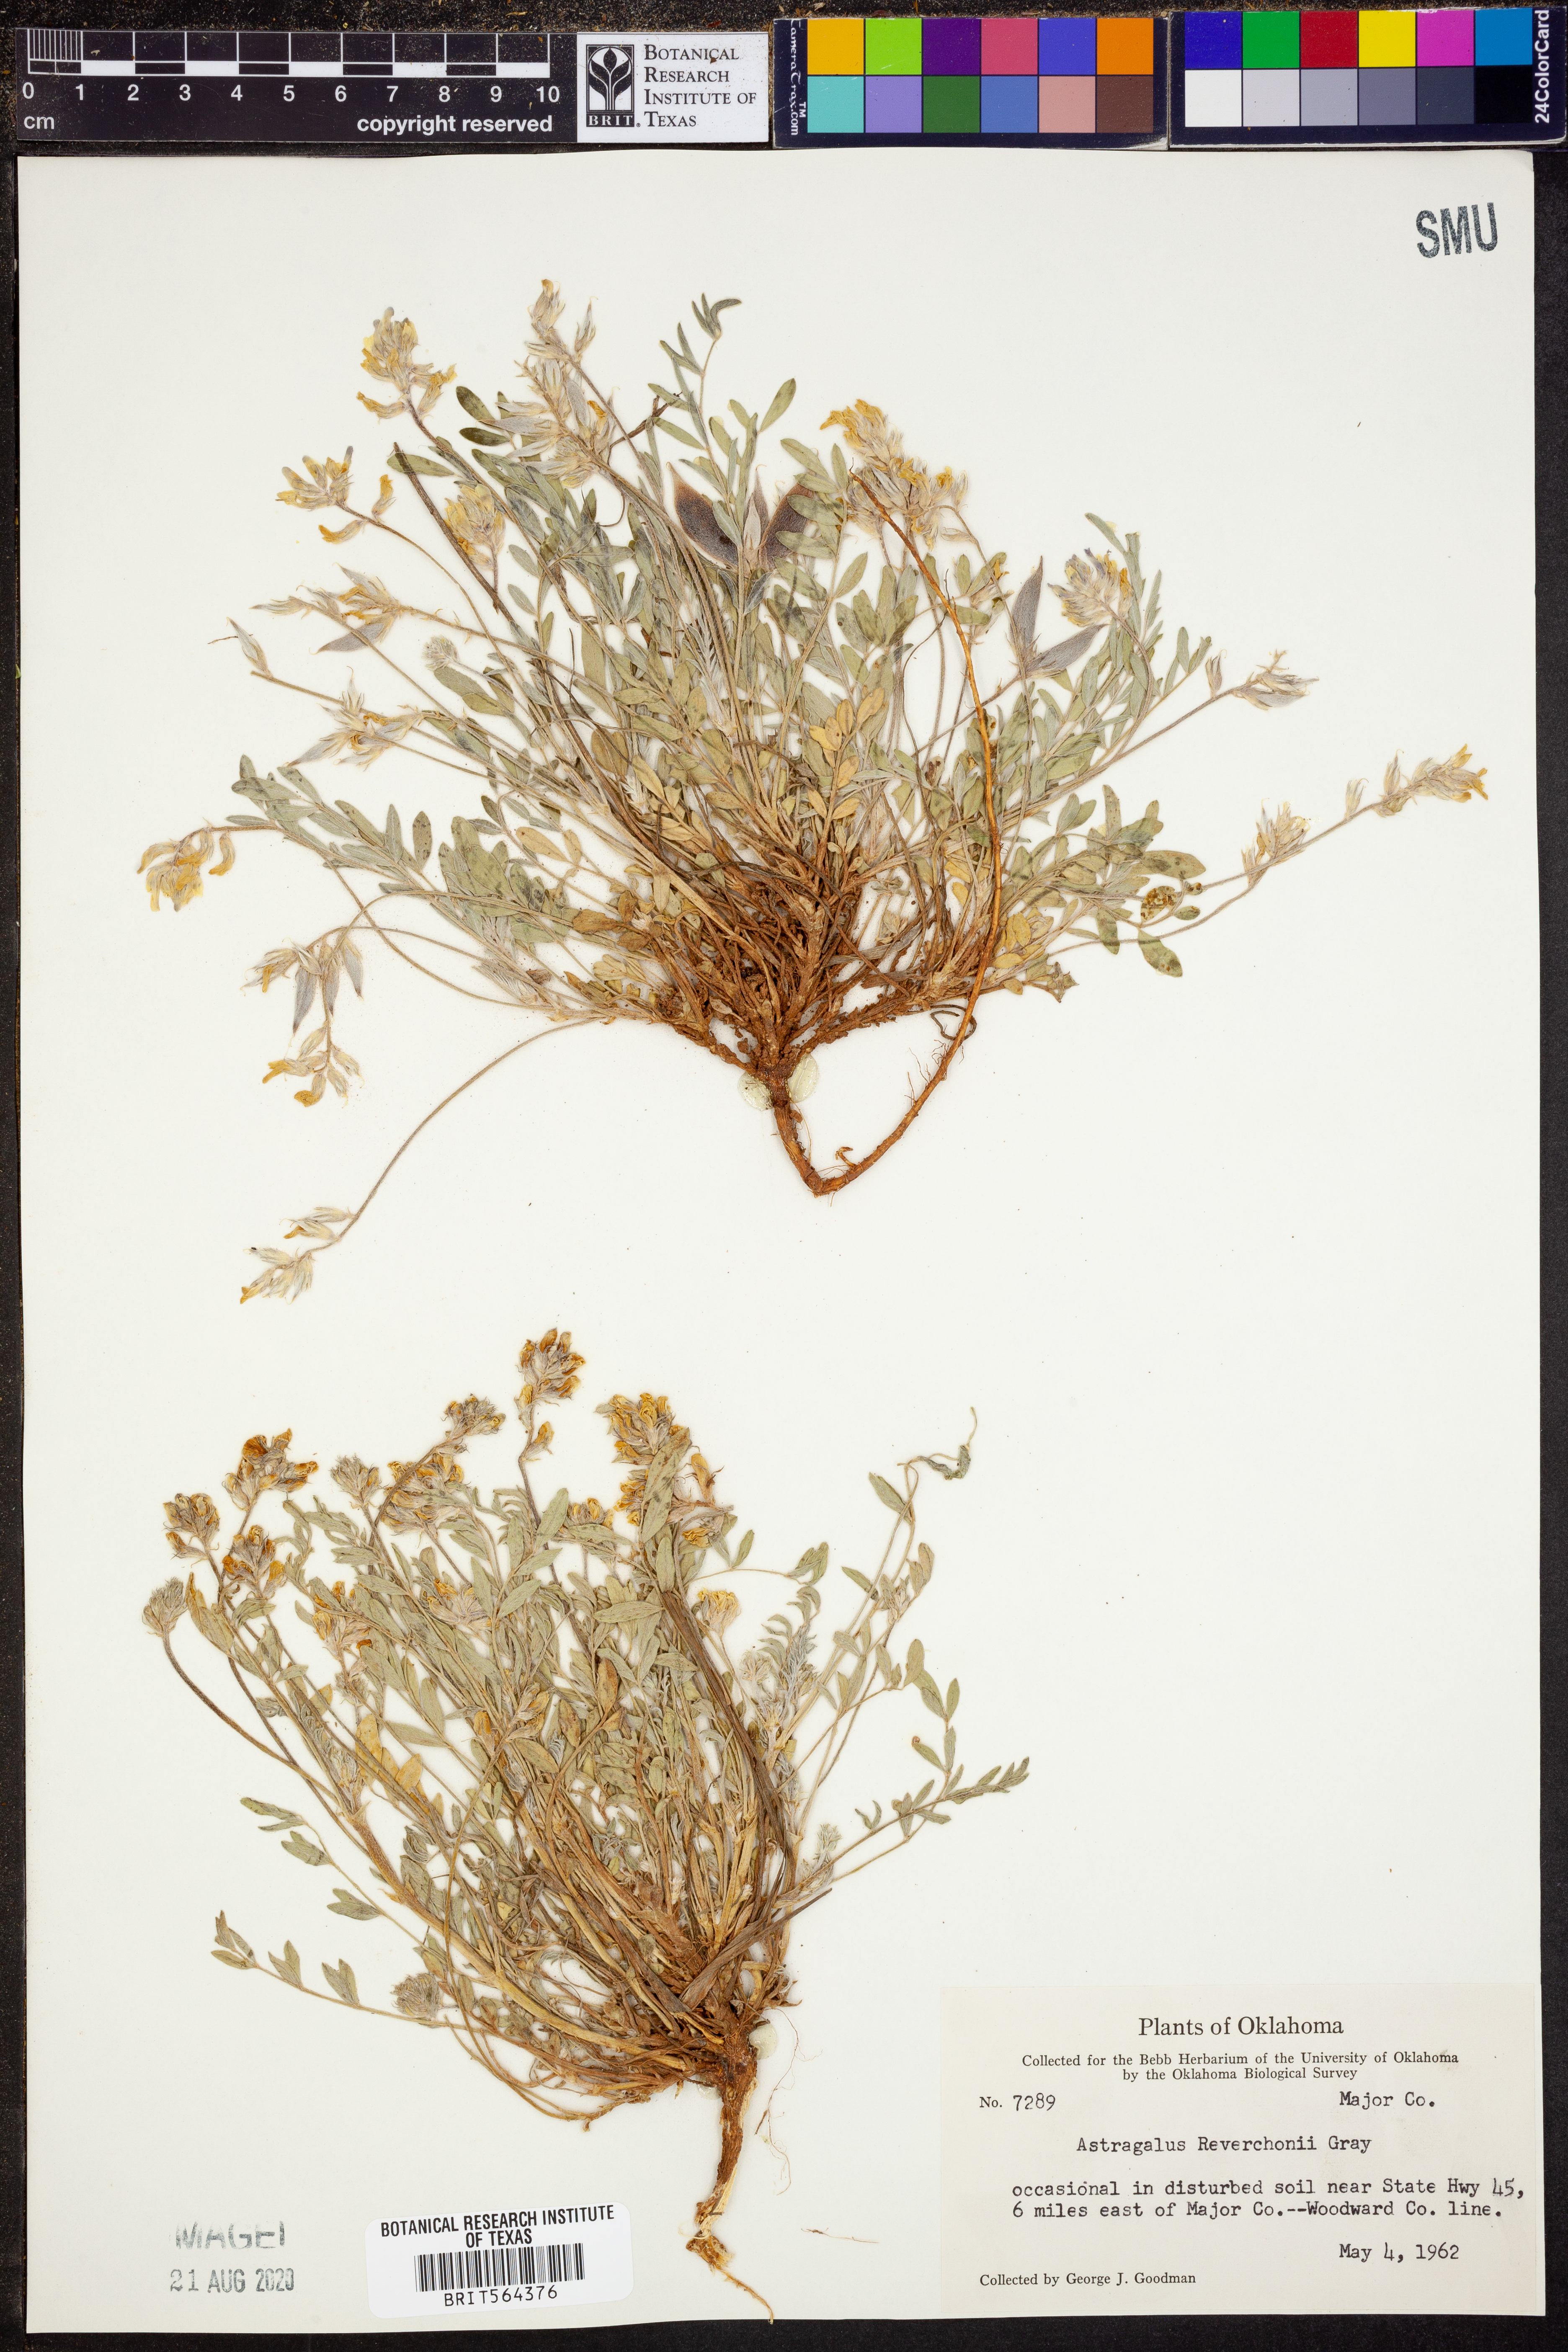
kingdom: Plantae
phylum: Tracheophyta
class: Magnoliopsida
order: Fabales
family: Fabaceae
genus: Astragalus
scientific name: Astragalus lotiflorus
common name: Lotus milk-vetch
